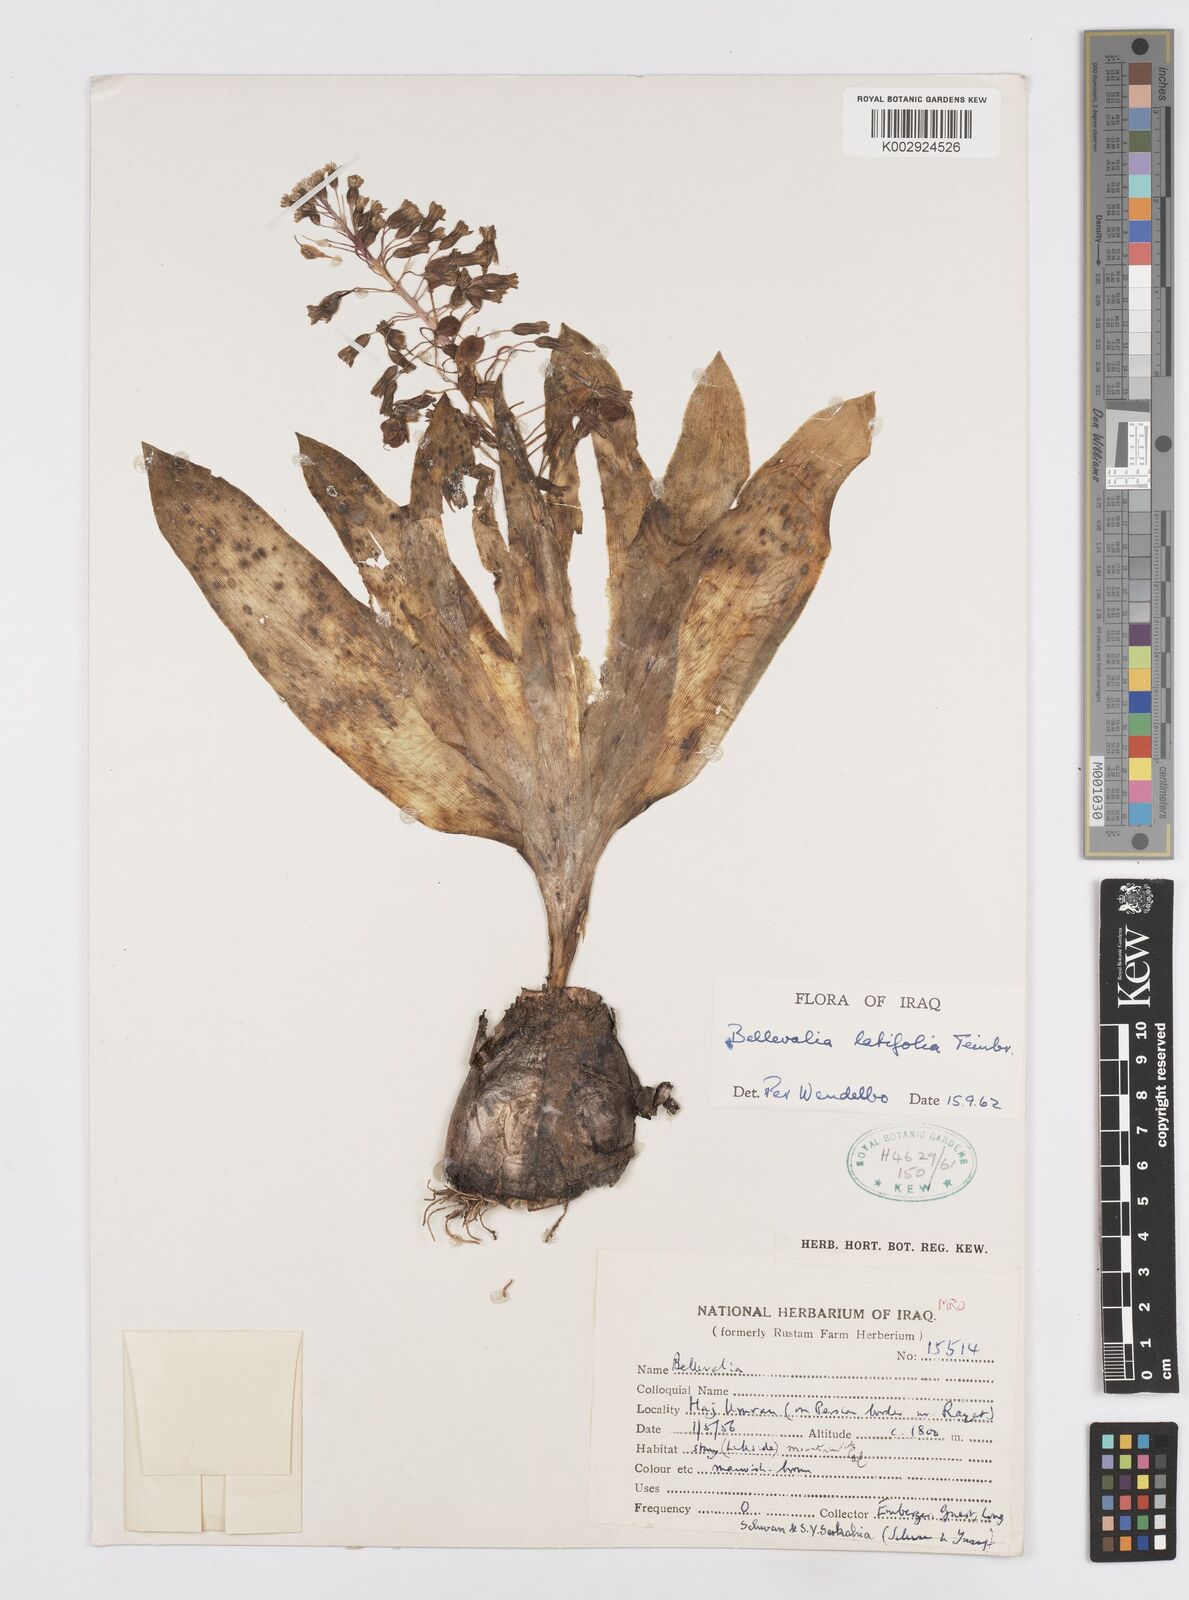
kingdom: Plantae
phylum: Tracheophyta
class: Liliopsida
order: Asparagales
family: Asparagaceae
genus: Bellevalia
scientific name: Bellevalia olivieri
